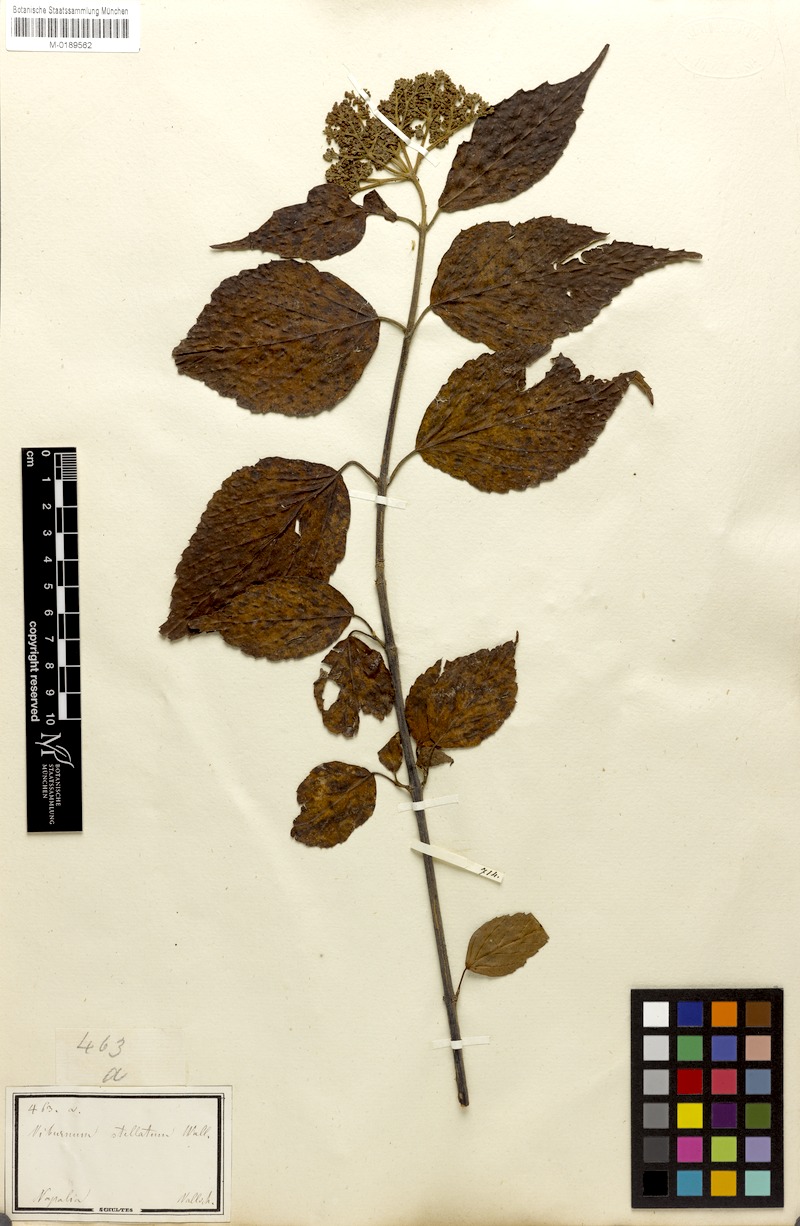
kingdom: Plantae
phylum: Tracheophyta
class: Magnoliopsida
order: Dipsacales
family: Viburnaceae
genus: Viburnum
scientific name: Viburnum mullaha
